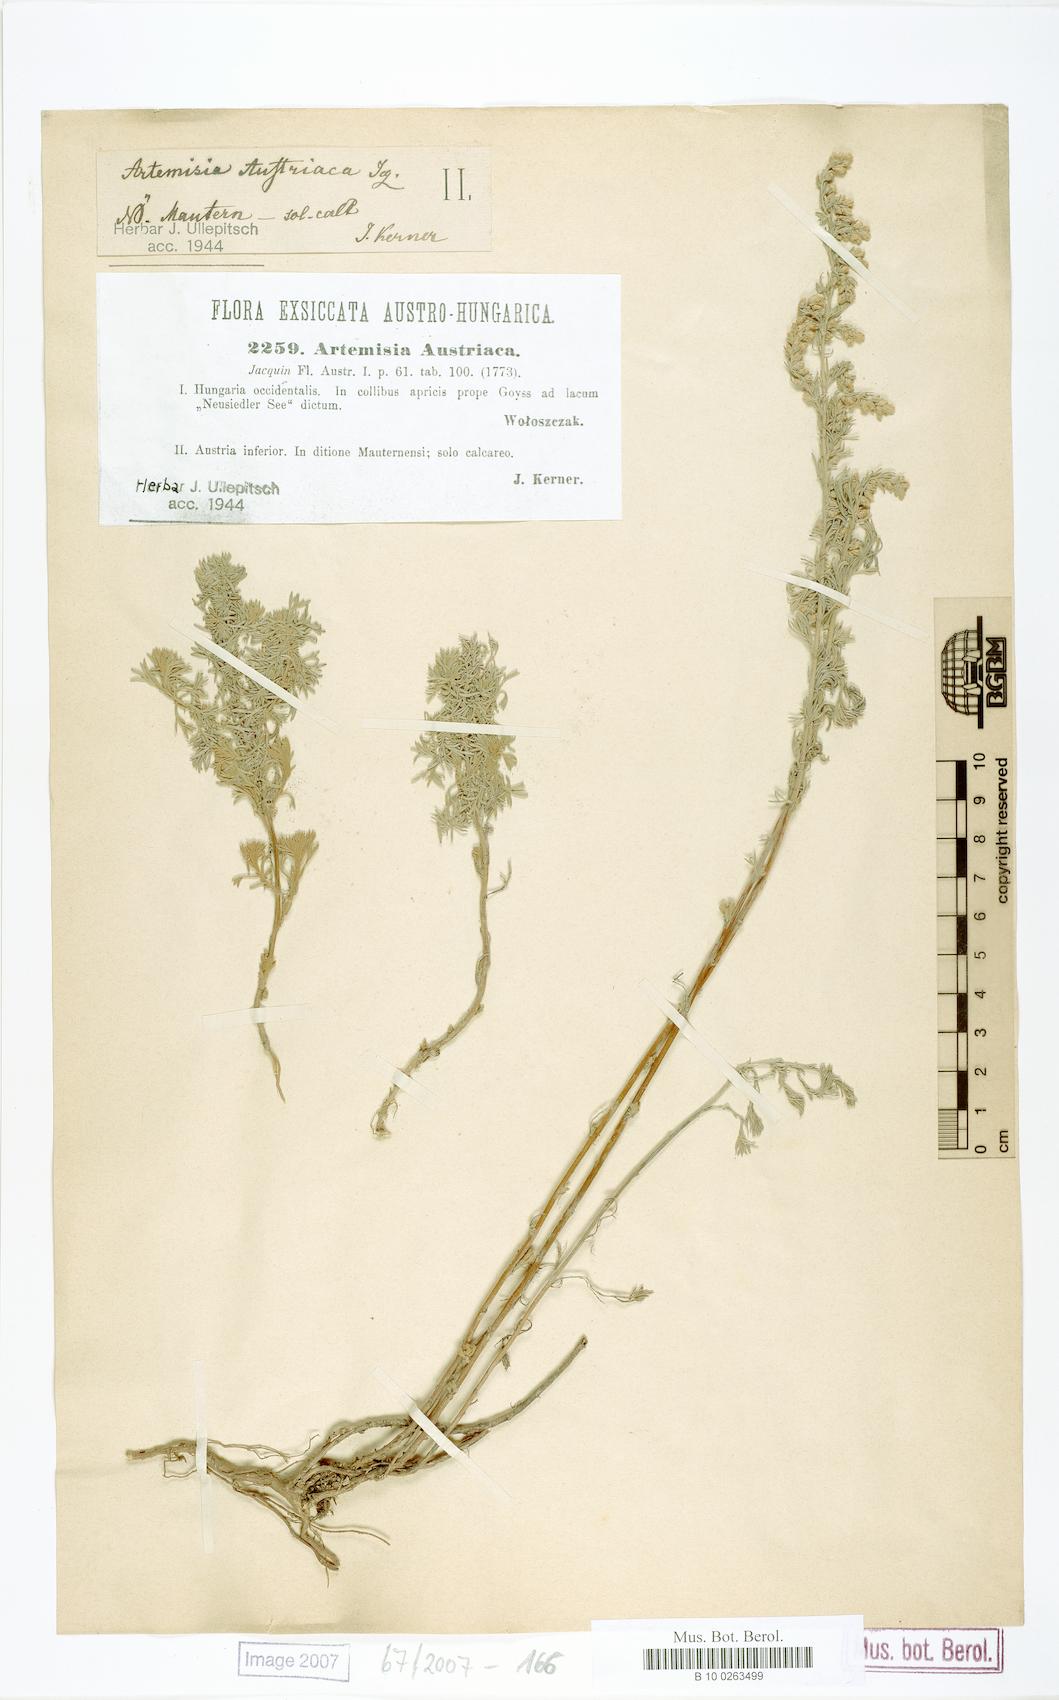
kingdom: Plantae
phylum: Tracheophyta
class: Magnoliopsida
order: Asterales
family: Asteraceae
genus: Artemisia
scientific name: Artemisia austriaca
